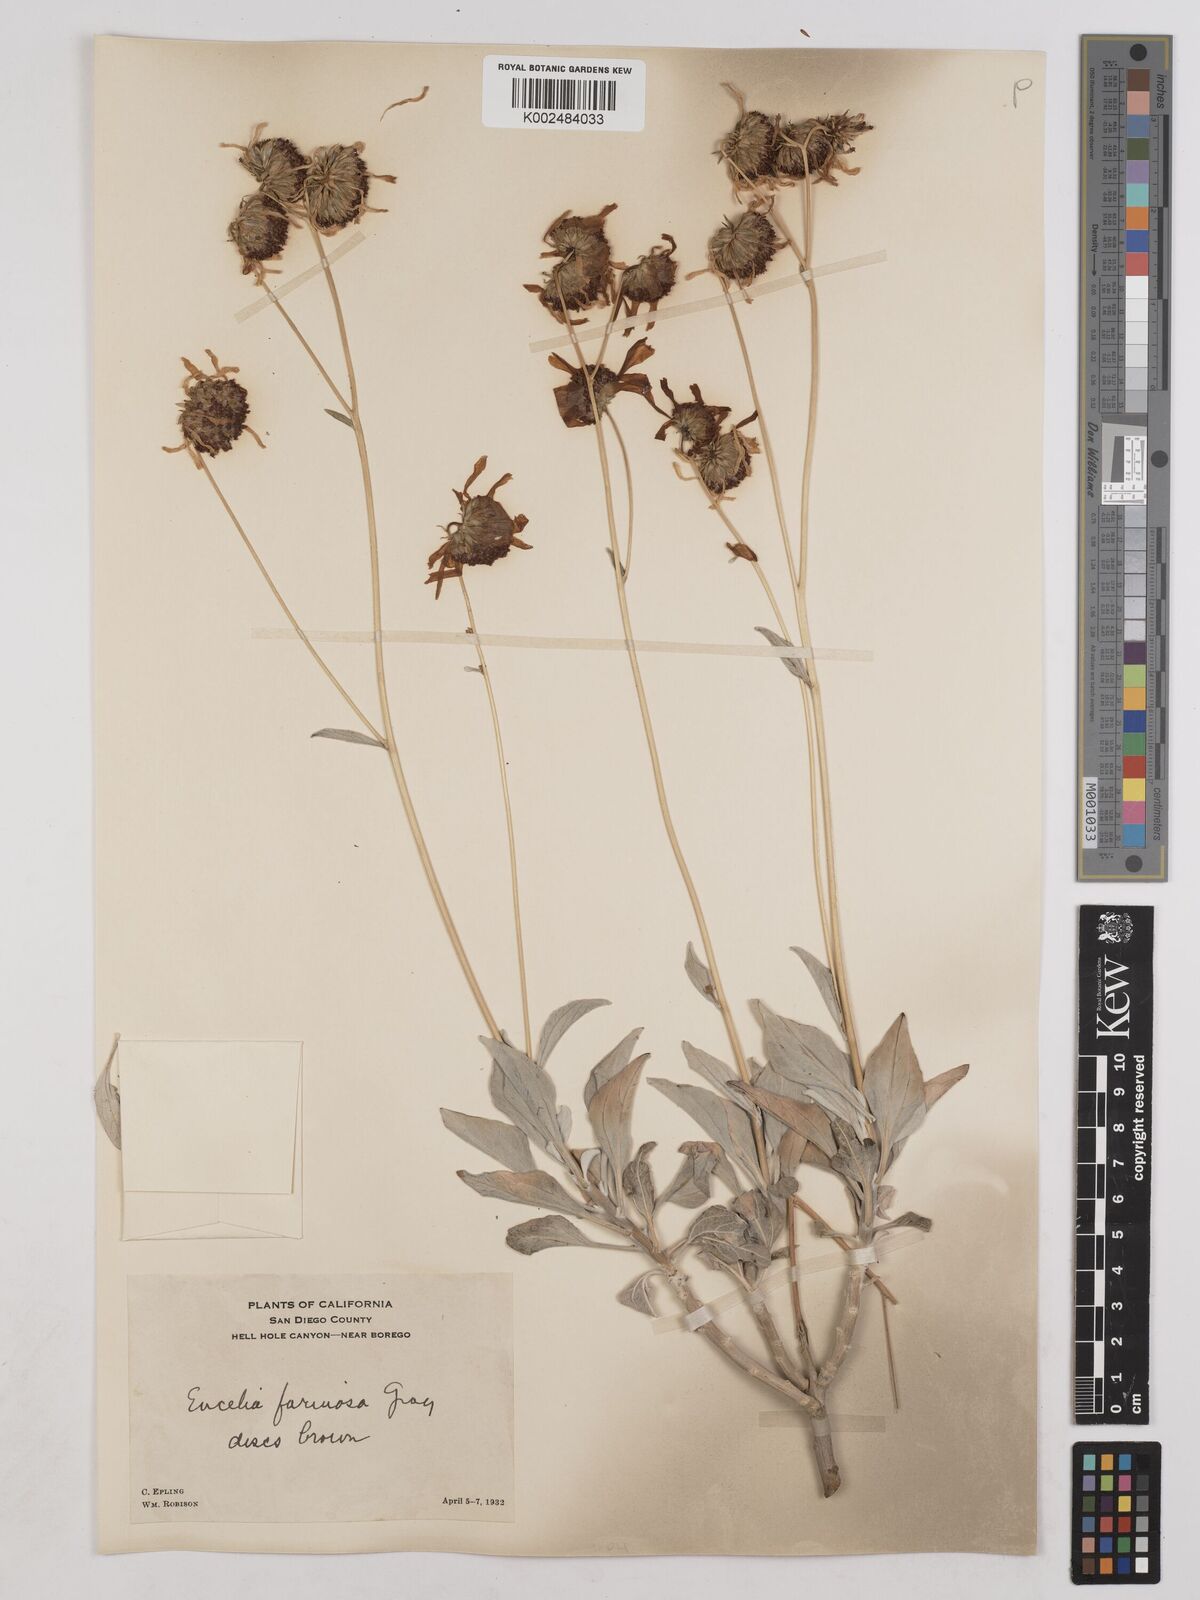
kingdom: Plantae
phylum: Tracheophyta
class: Magnoliopsida
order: Asterales
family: Asteraceae
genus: Encelia
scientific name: Encelia farinosa
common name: Brittlebush
